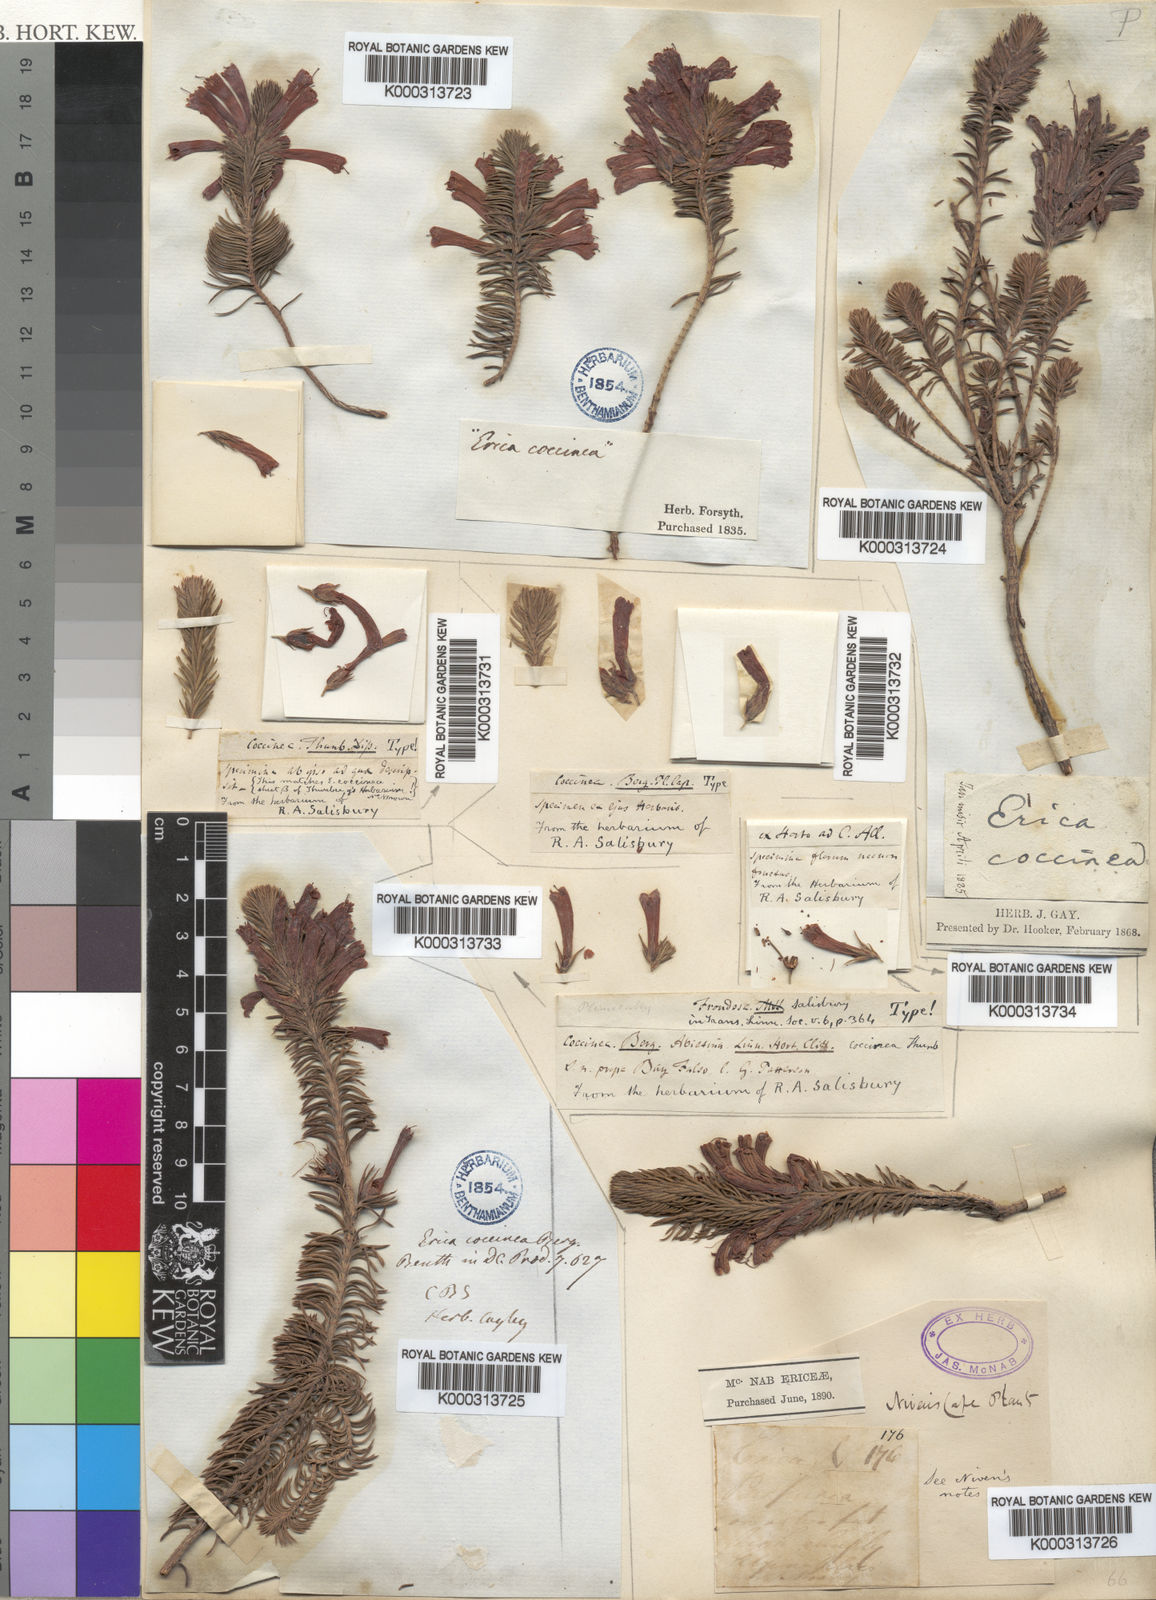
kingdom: Plantae
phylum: Tracheophyta
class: Magnoliopsida
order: Ericales
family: Ericaceae
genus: Erica
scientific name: Erica abietina
